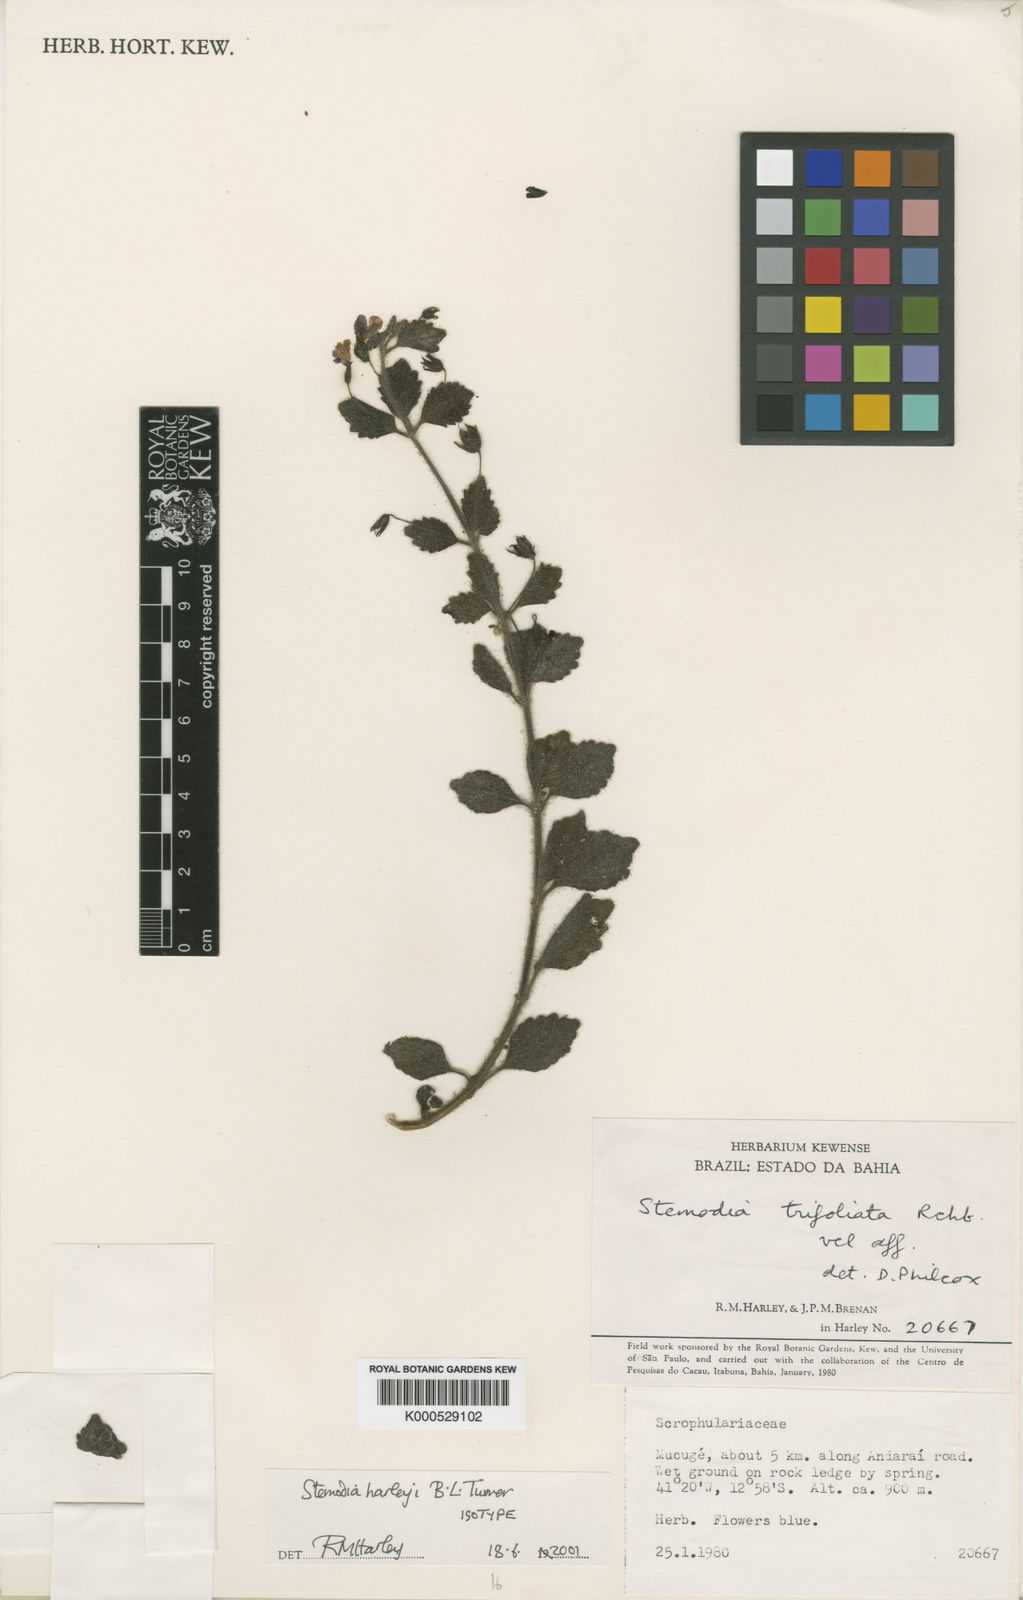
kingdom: Plantae
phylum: Tracheophyta
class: Magnoliopsida
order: Lamiales
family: Plantaginaceae
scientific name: Plantaginaceae
